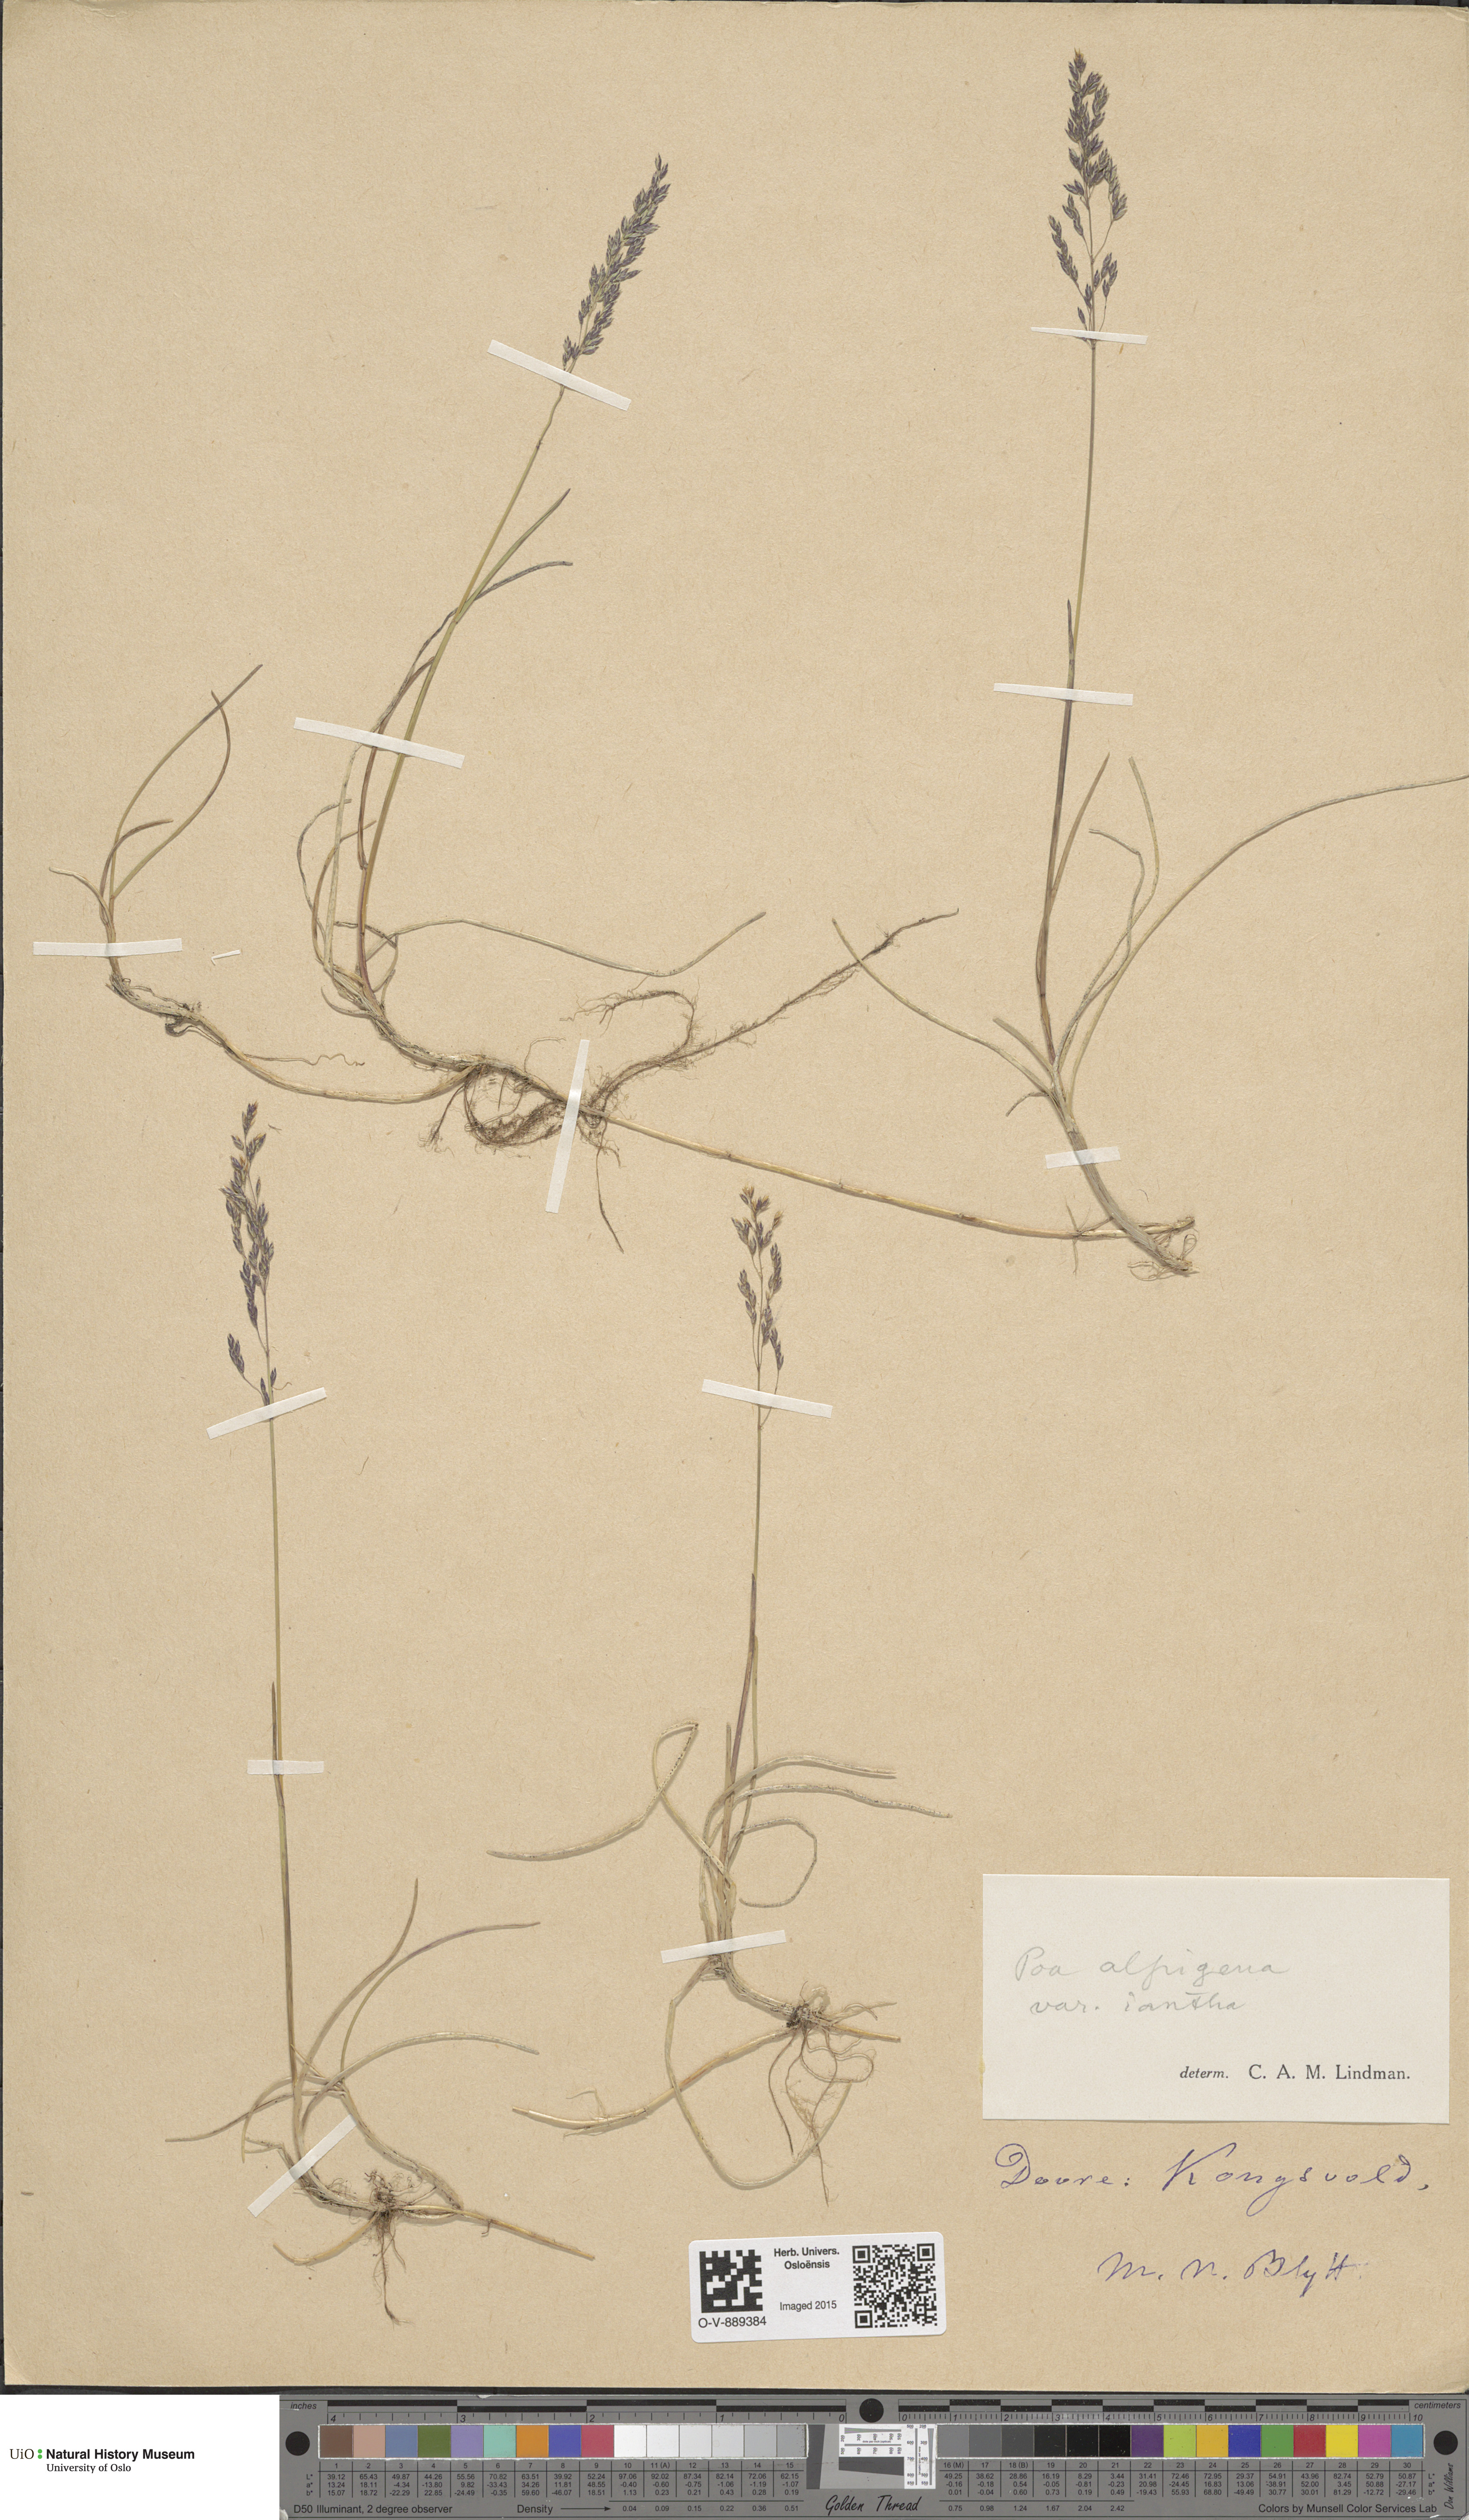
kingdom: Plantae
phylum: Tracheophyta
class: Liliopsida
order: Poales
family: Poaceae
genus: Poa
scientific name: Poa alpigena
